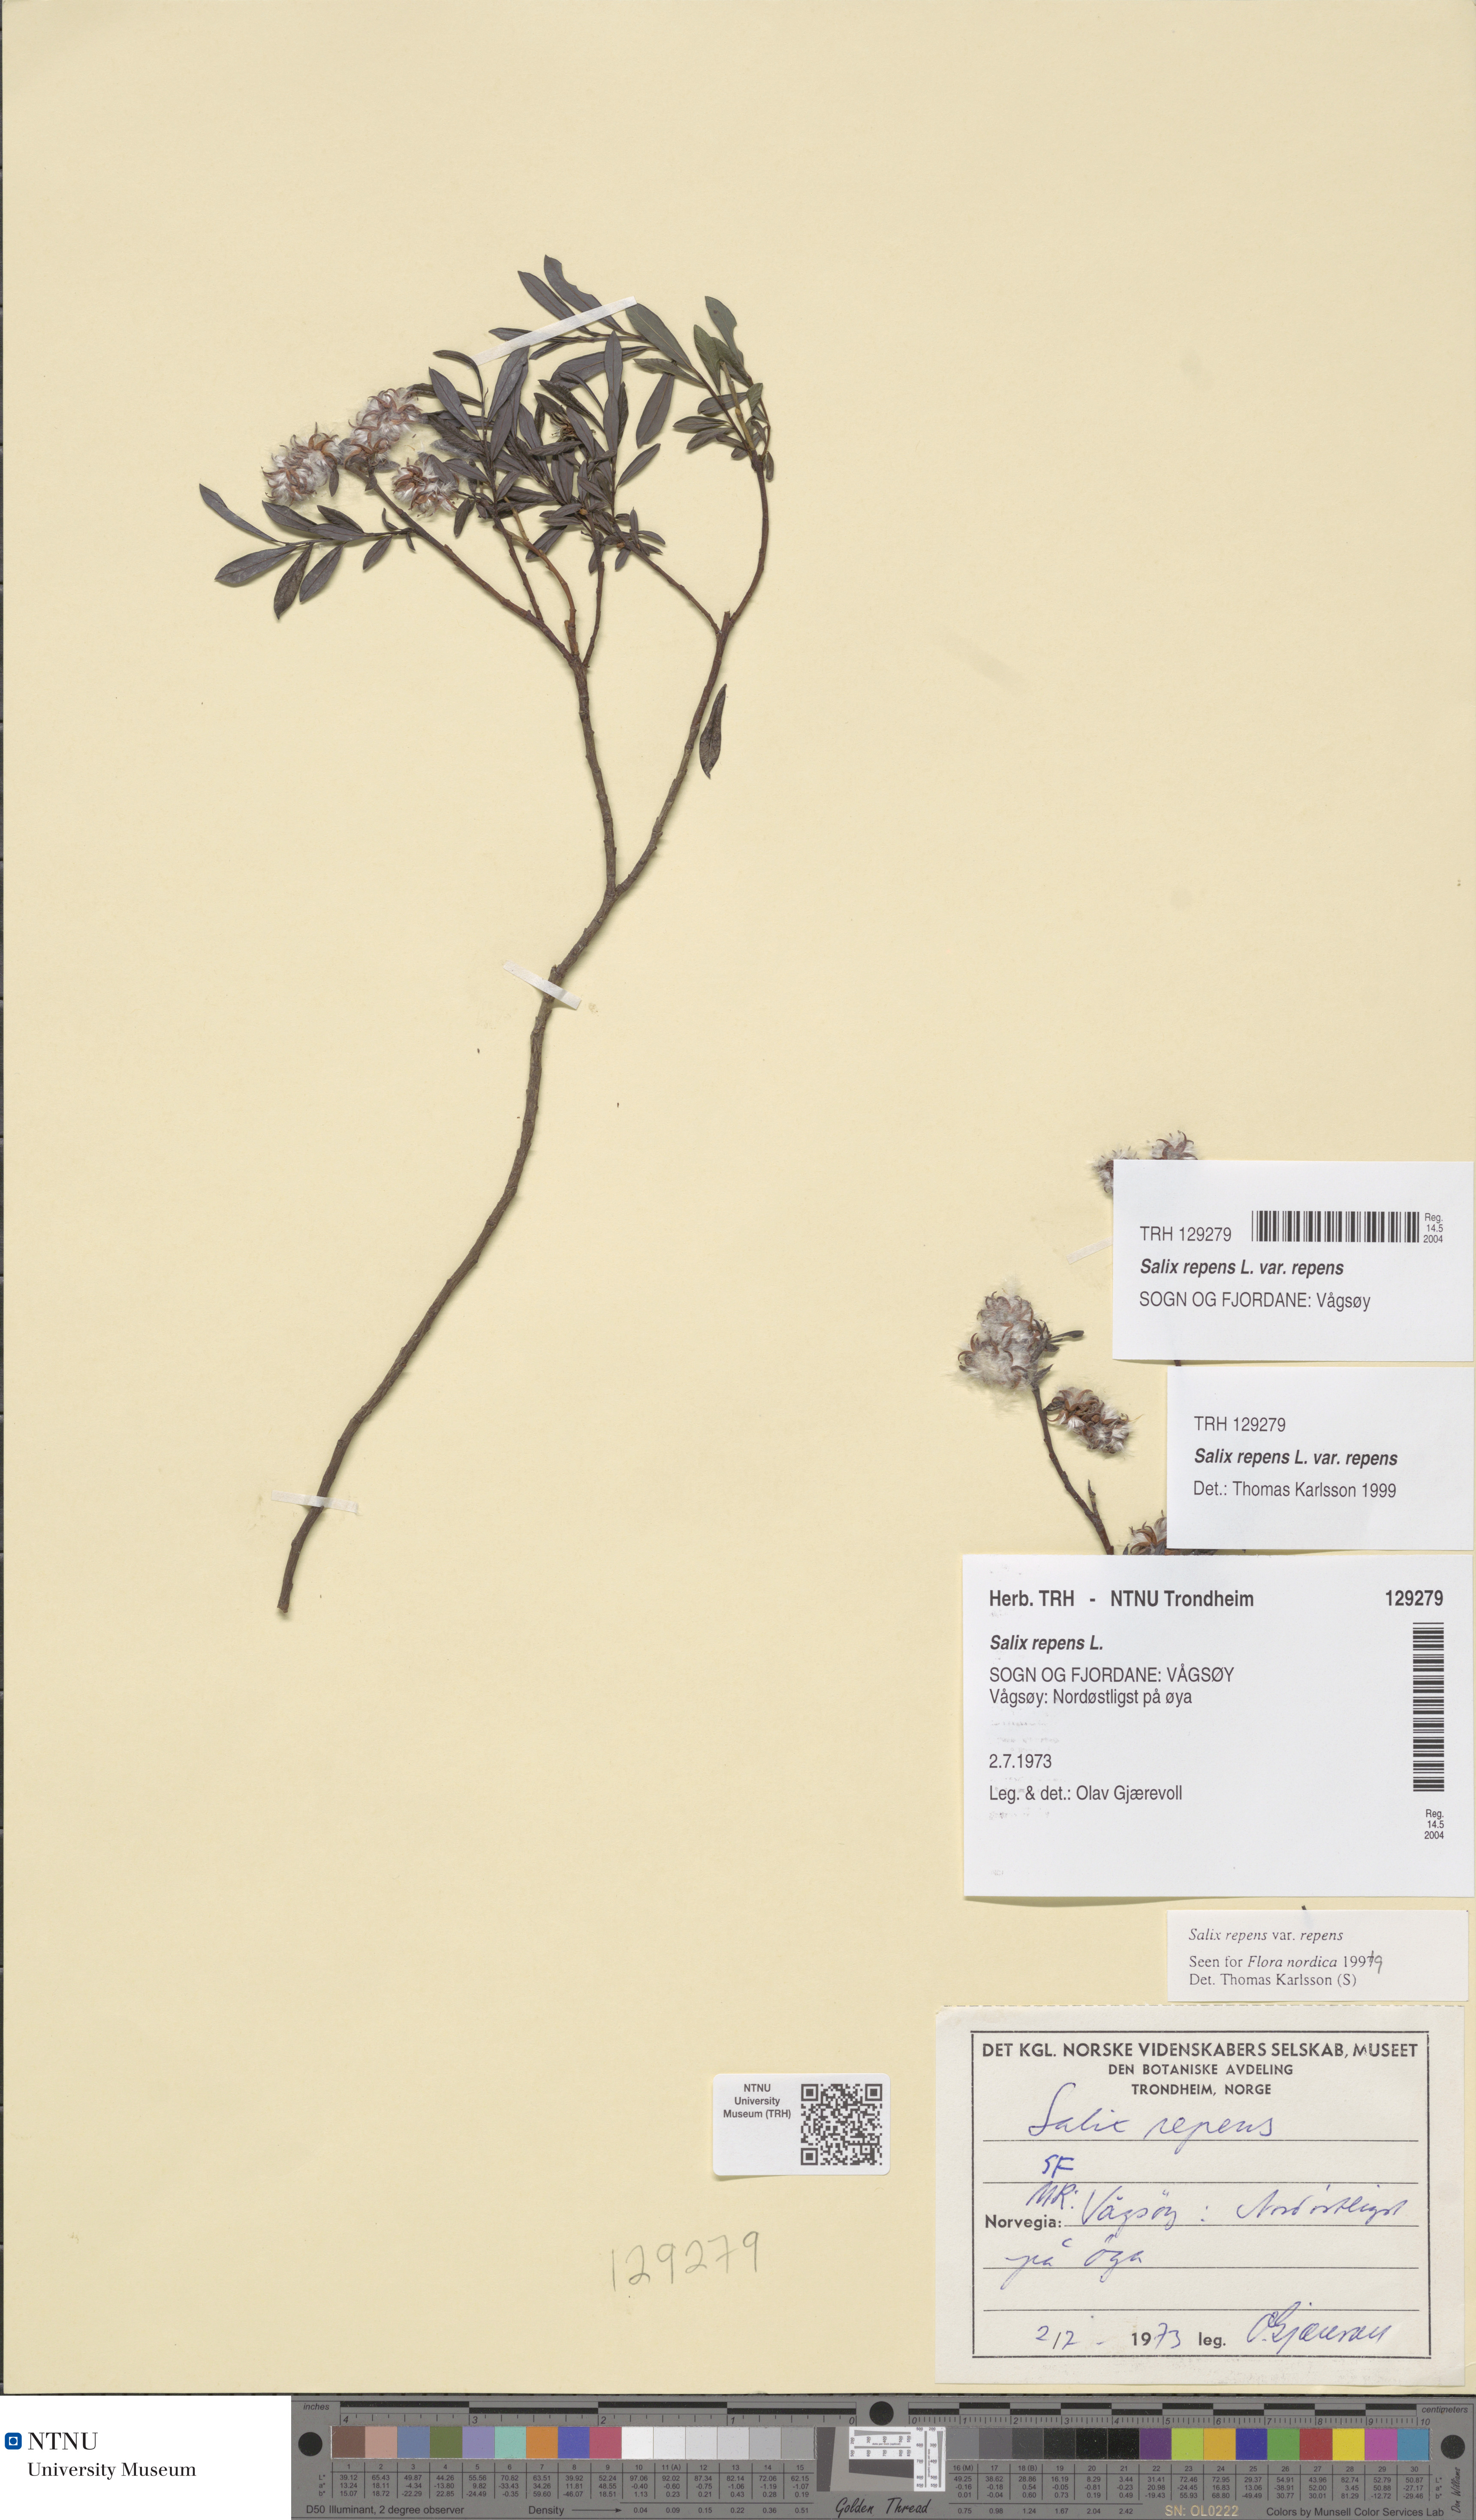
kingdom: Plantae
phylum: Tracheophyta
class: Magnoliopsida
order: Malpighiales
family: Salicaceae
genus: Salix
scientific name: Salix repens
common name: Creeping willow
